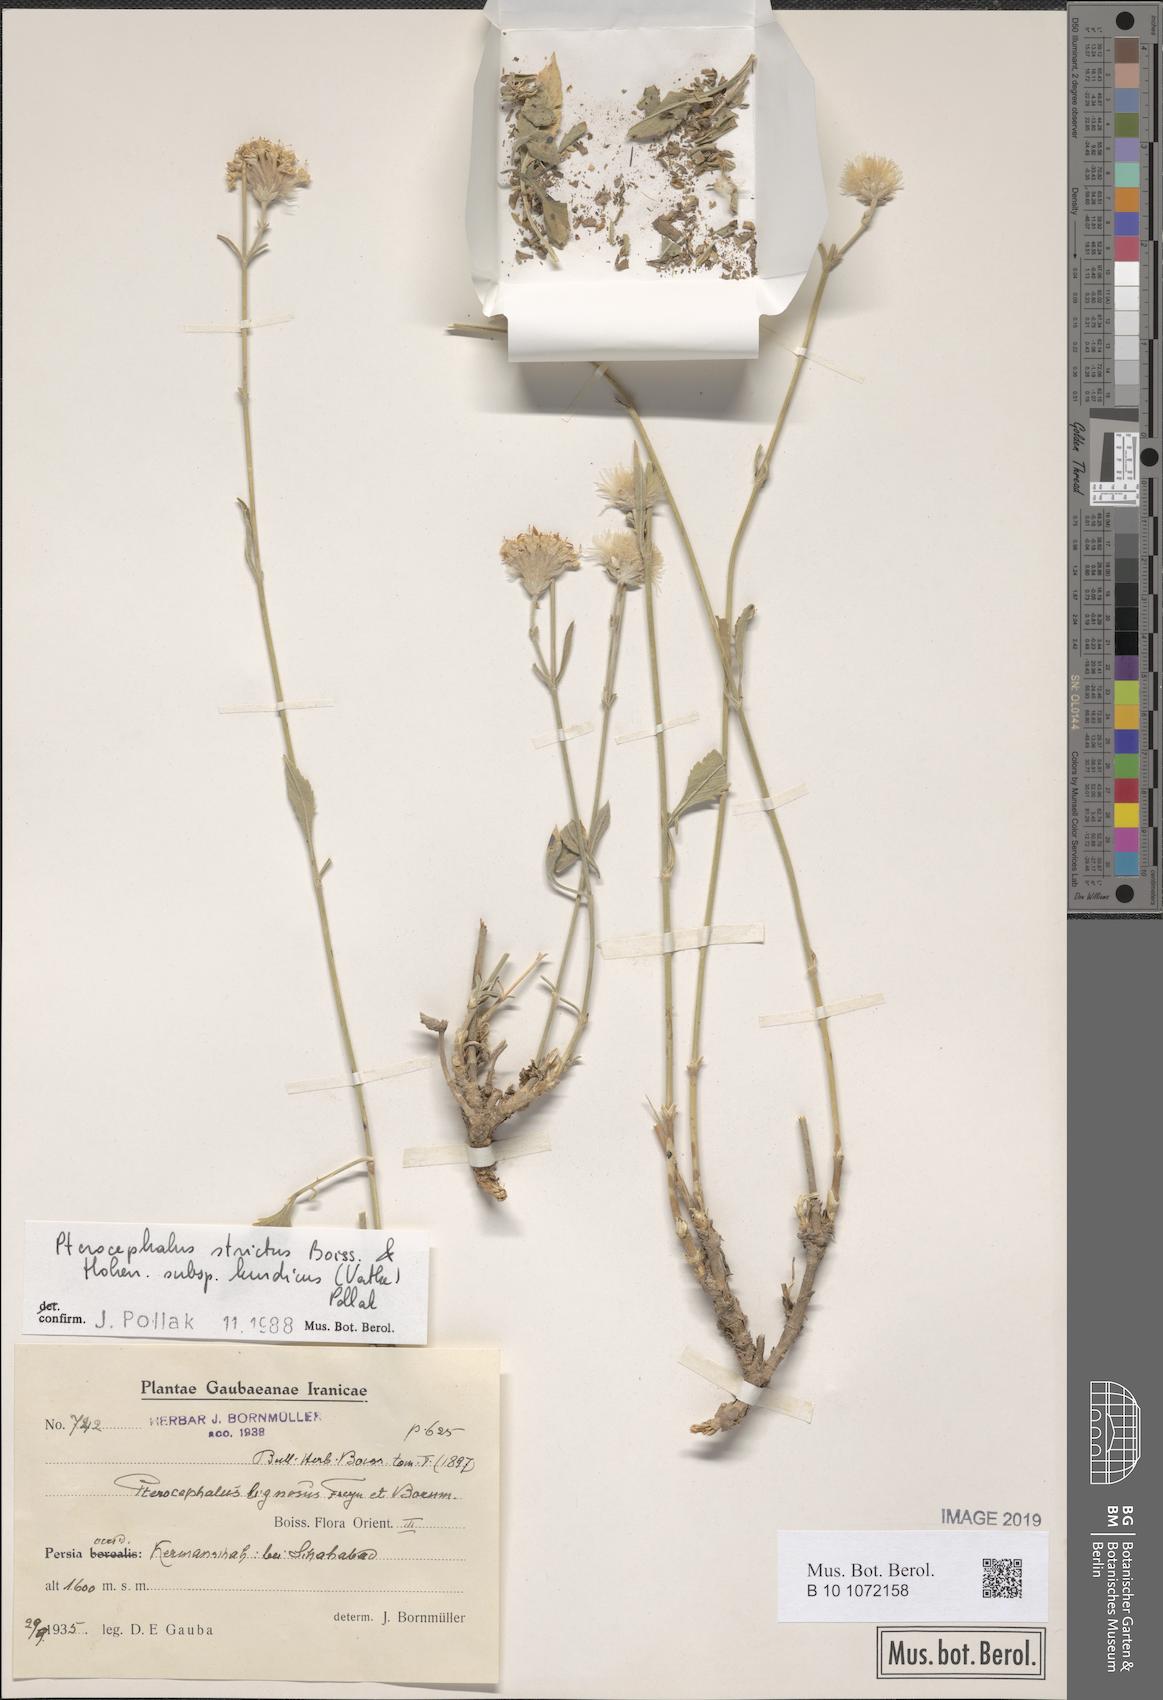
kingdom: Plantae
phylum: Tracheophyta
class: Magnoliopsida
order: Dipsacales
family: Caprifoliaceae
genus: Pterocephalus
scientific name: Pterocephalus strictus
